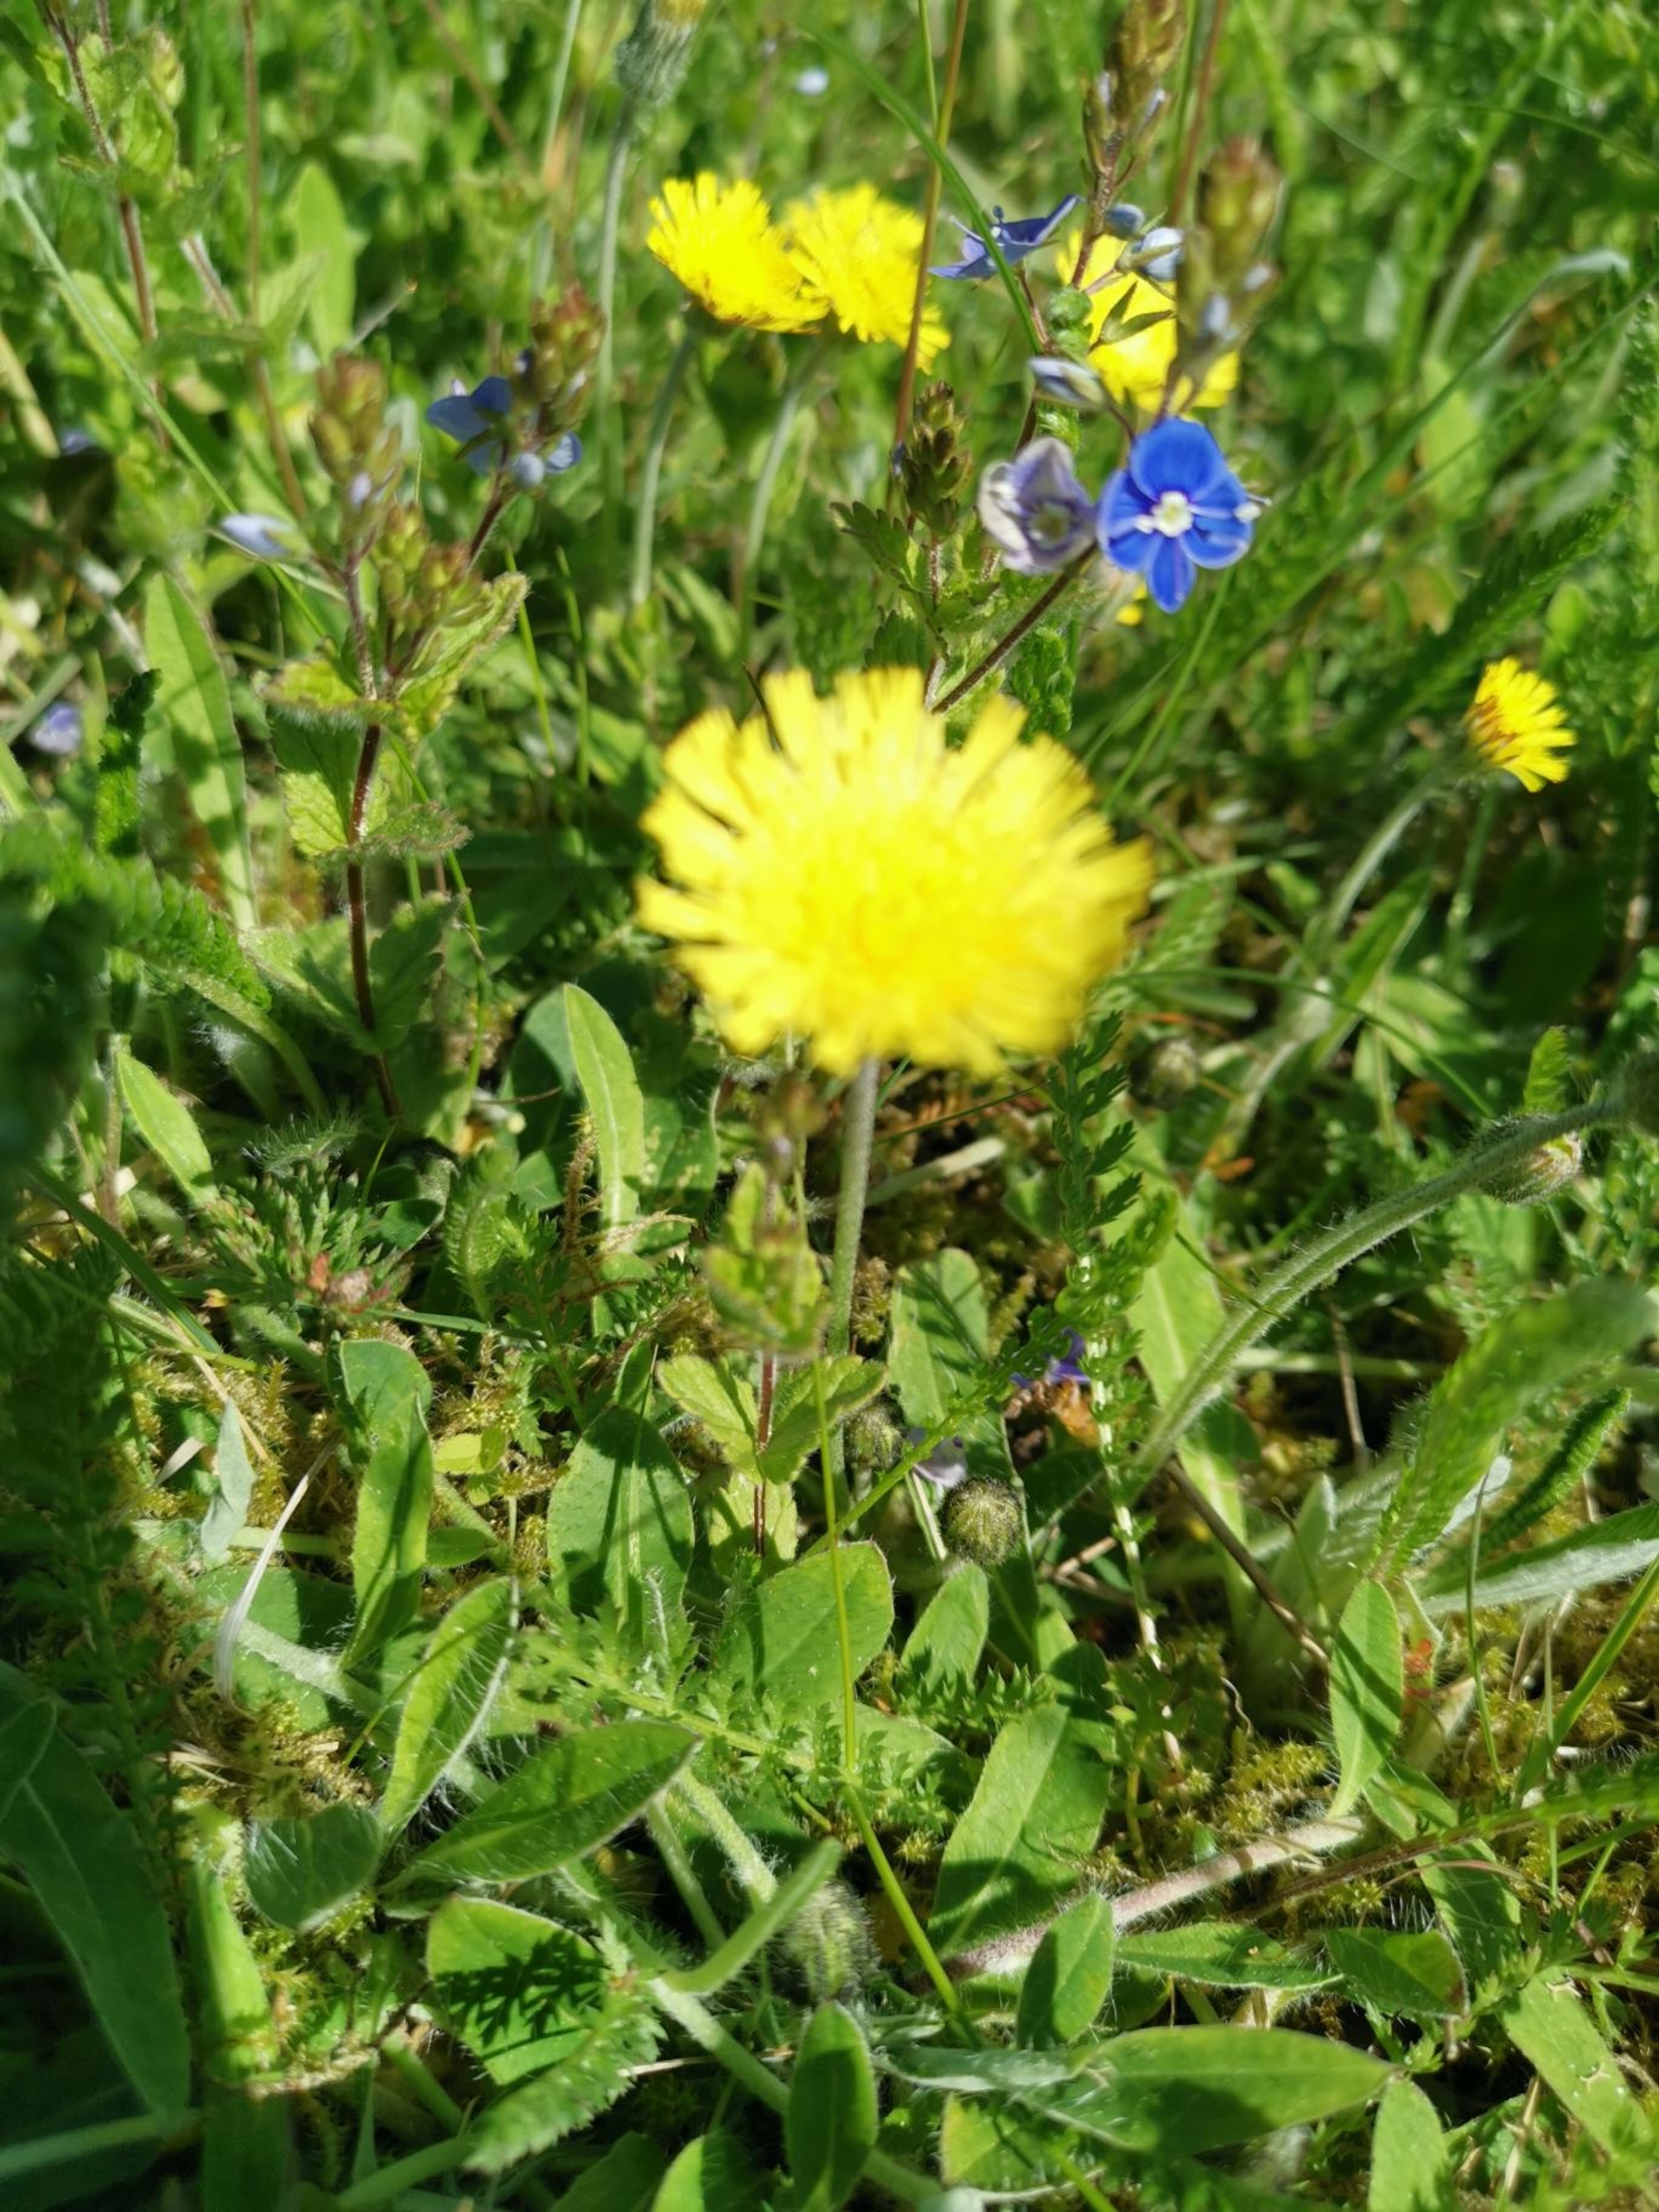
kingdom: Plantae
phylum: Tracheophyta
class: Magnoliopsida
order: Asterales
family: Asteraceae
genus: Pilosella
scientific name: Pilosella officinarum
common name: Håret høgeurt
